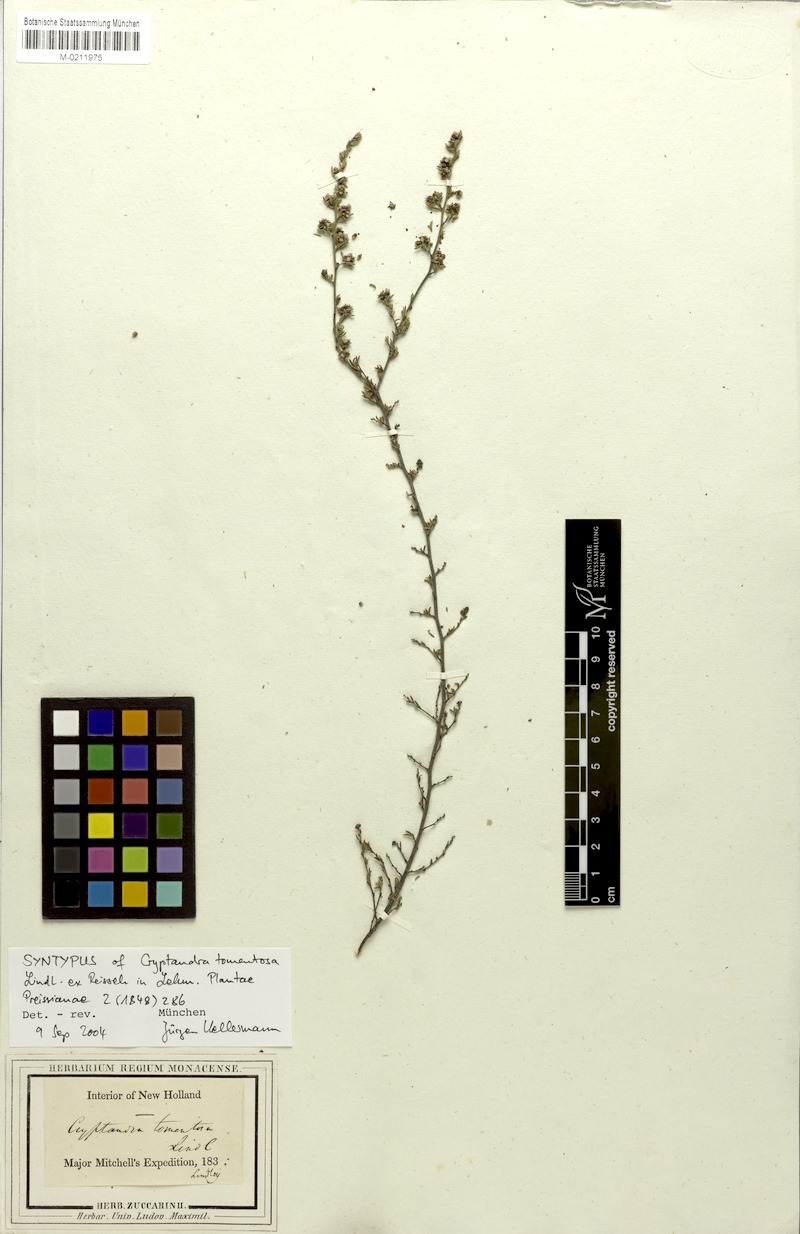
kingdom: Plantae
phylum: Tracheophyta
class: Magnoliopsida
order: Rosales
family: Rhamnaceae
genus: Cryptandra
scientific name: Cryptandra tomentosa
